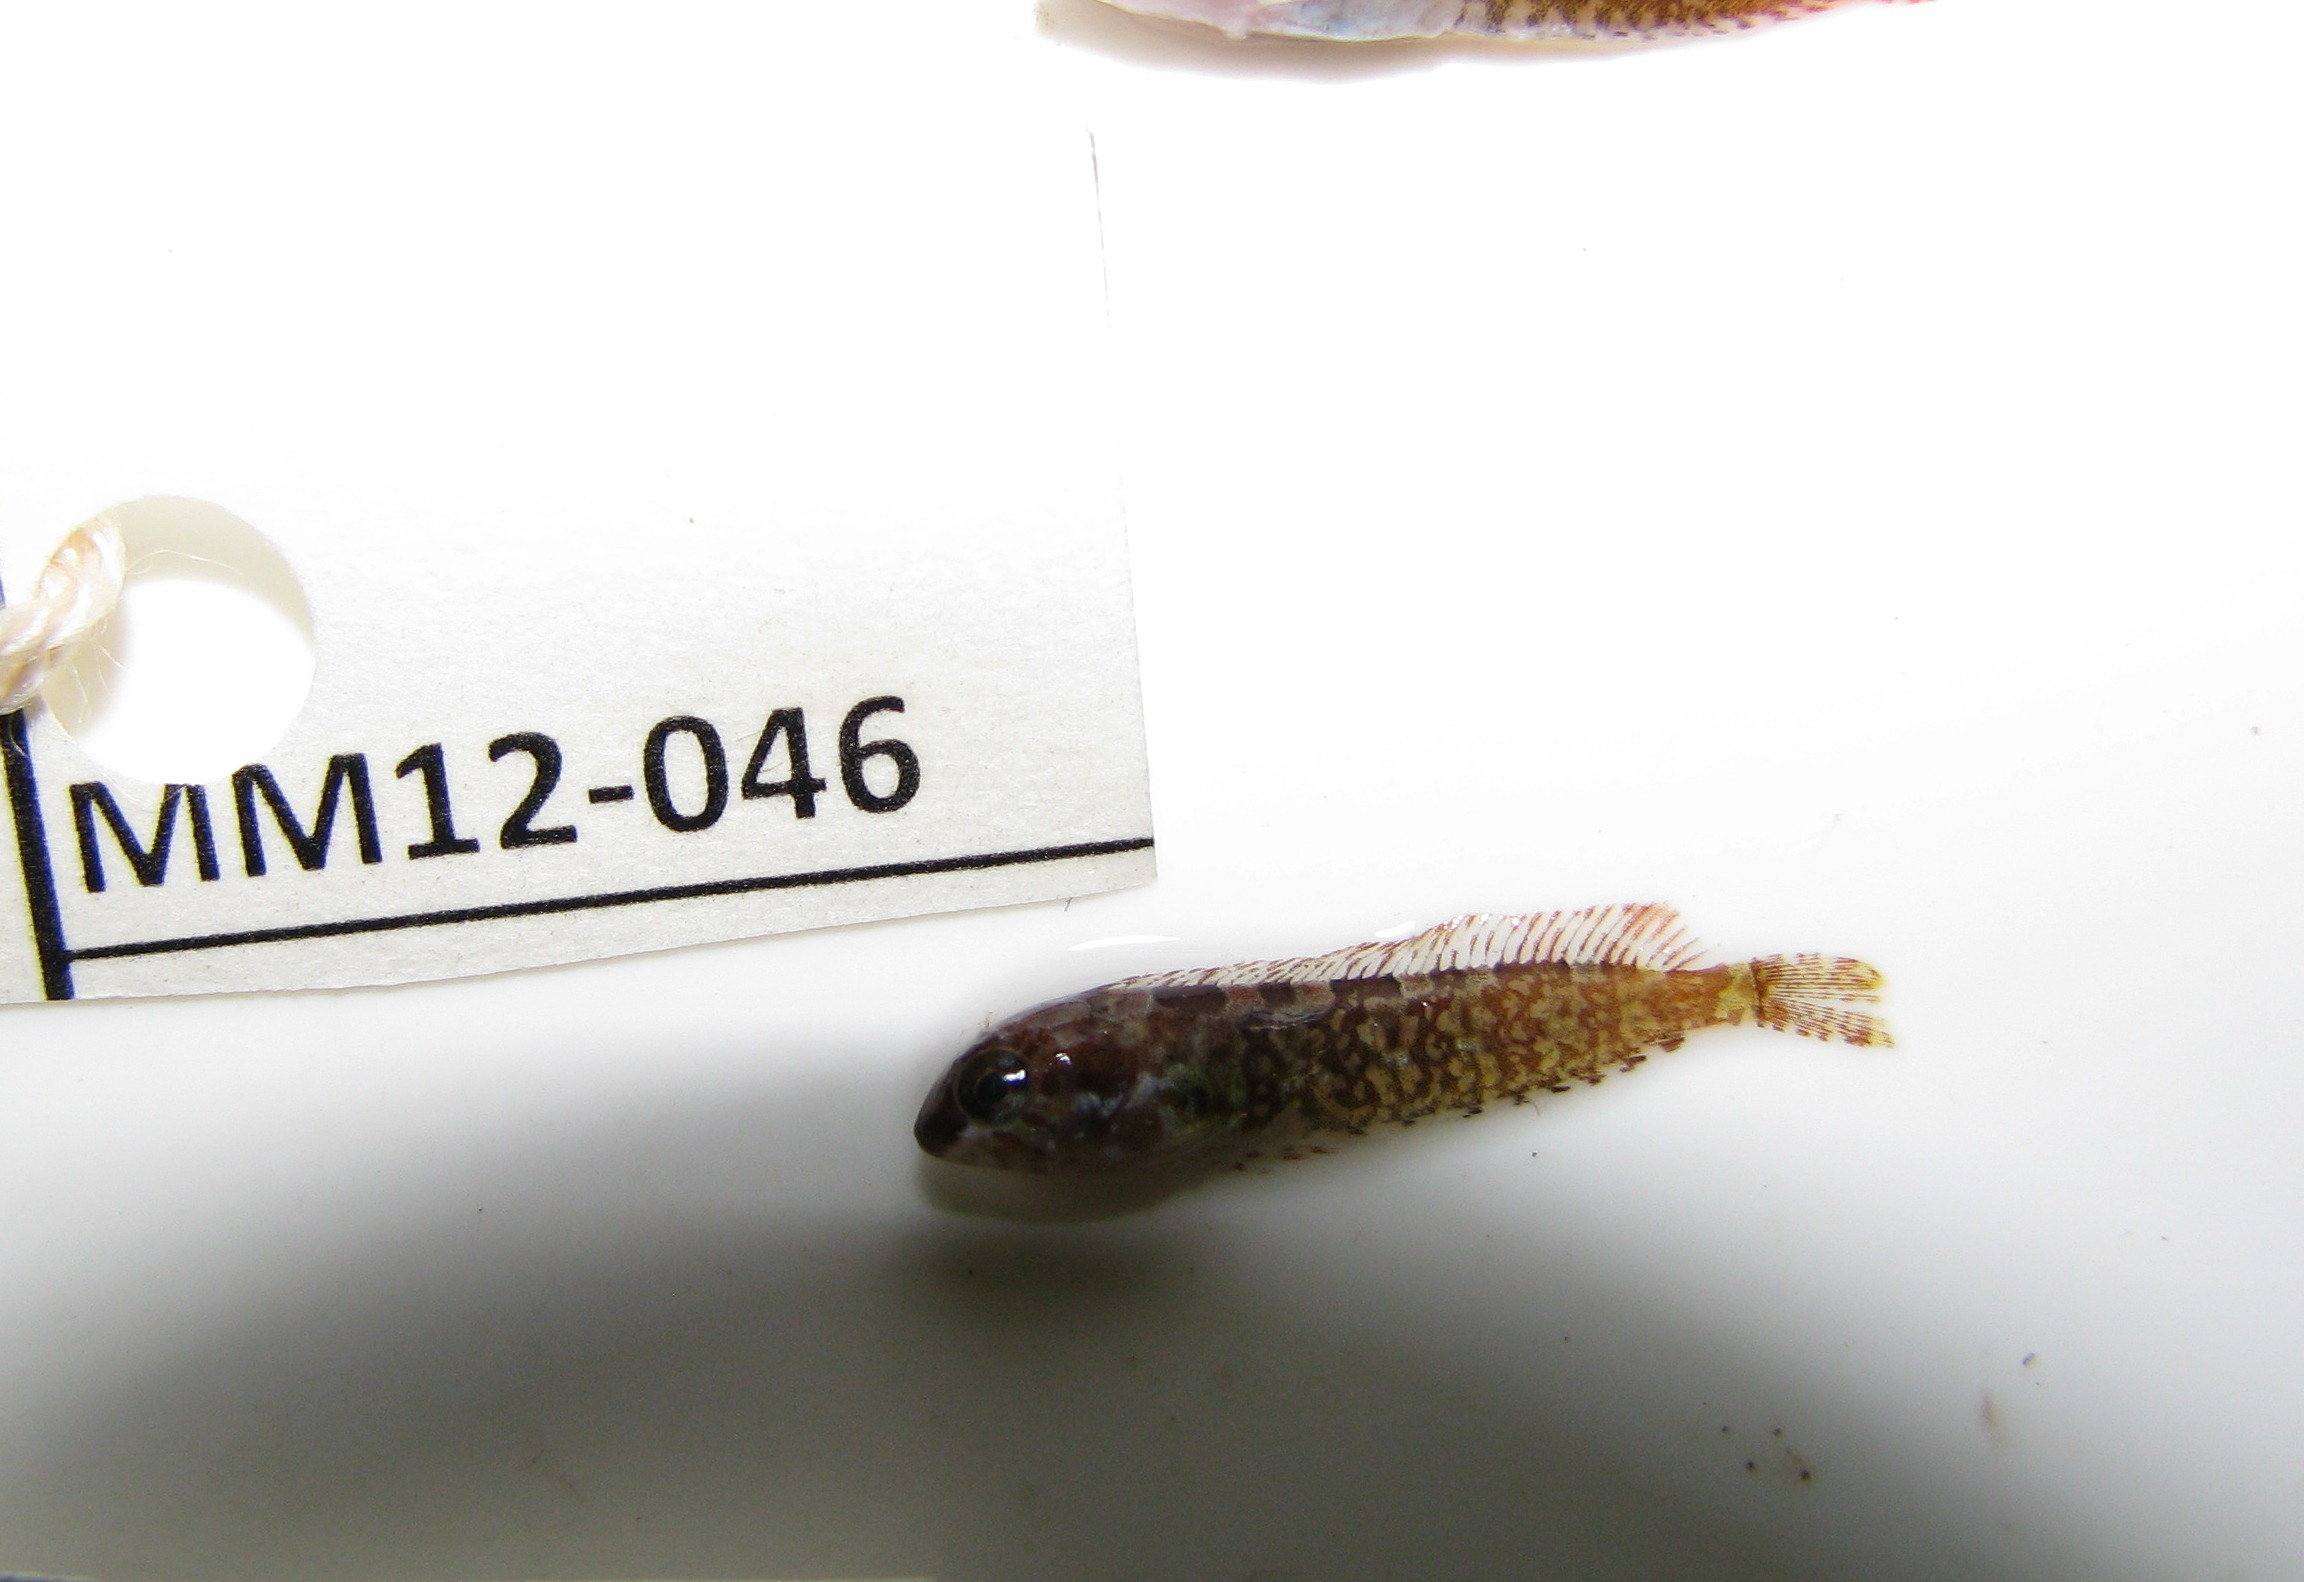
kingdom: Animalia
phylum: Chordata
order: Perciformes
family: Clinidae
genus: Clinus
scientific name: Clinus cottoides
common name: Bluntnose klipfish
